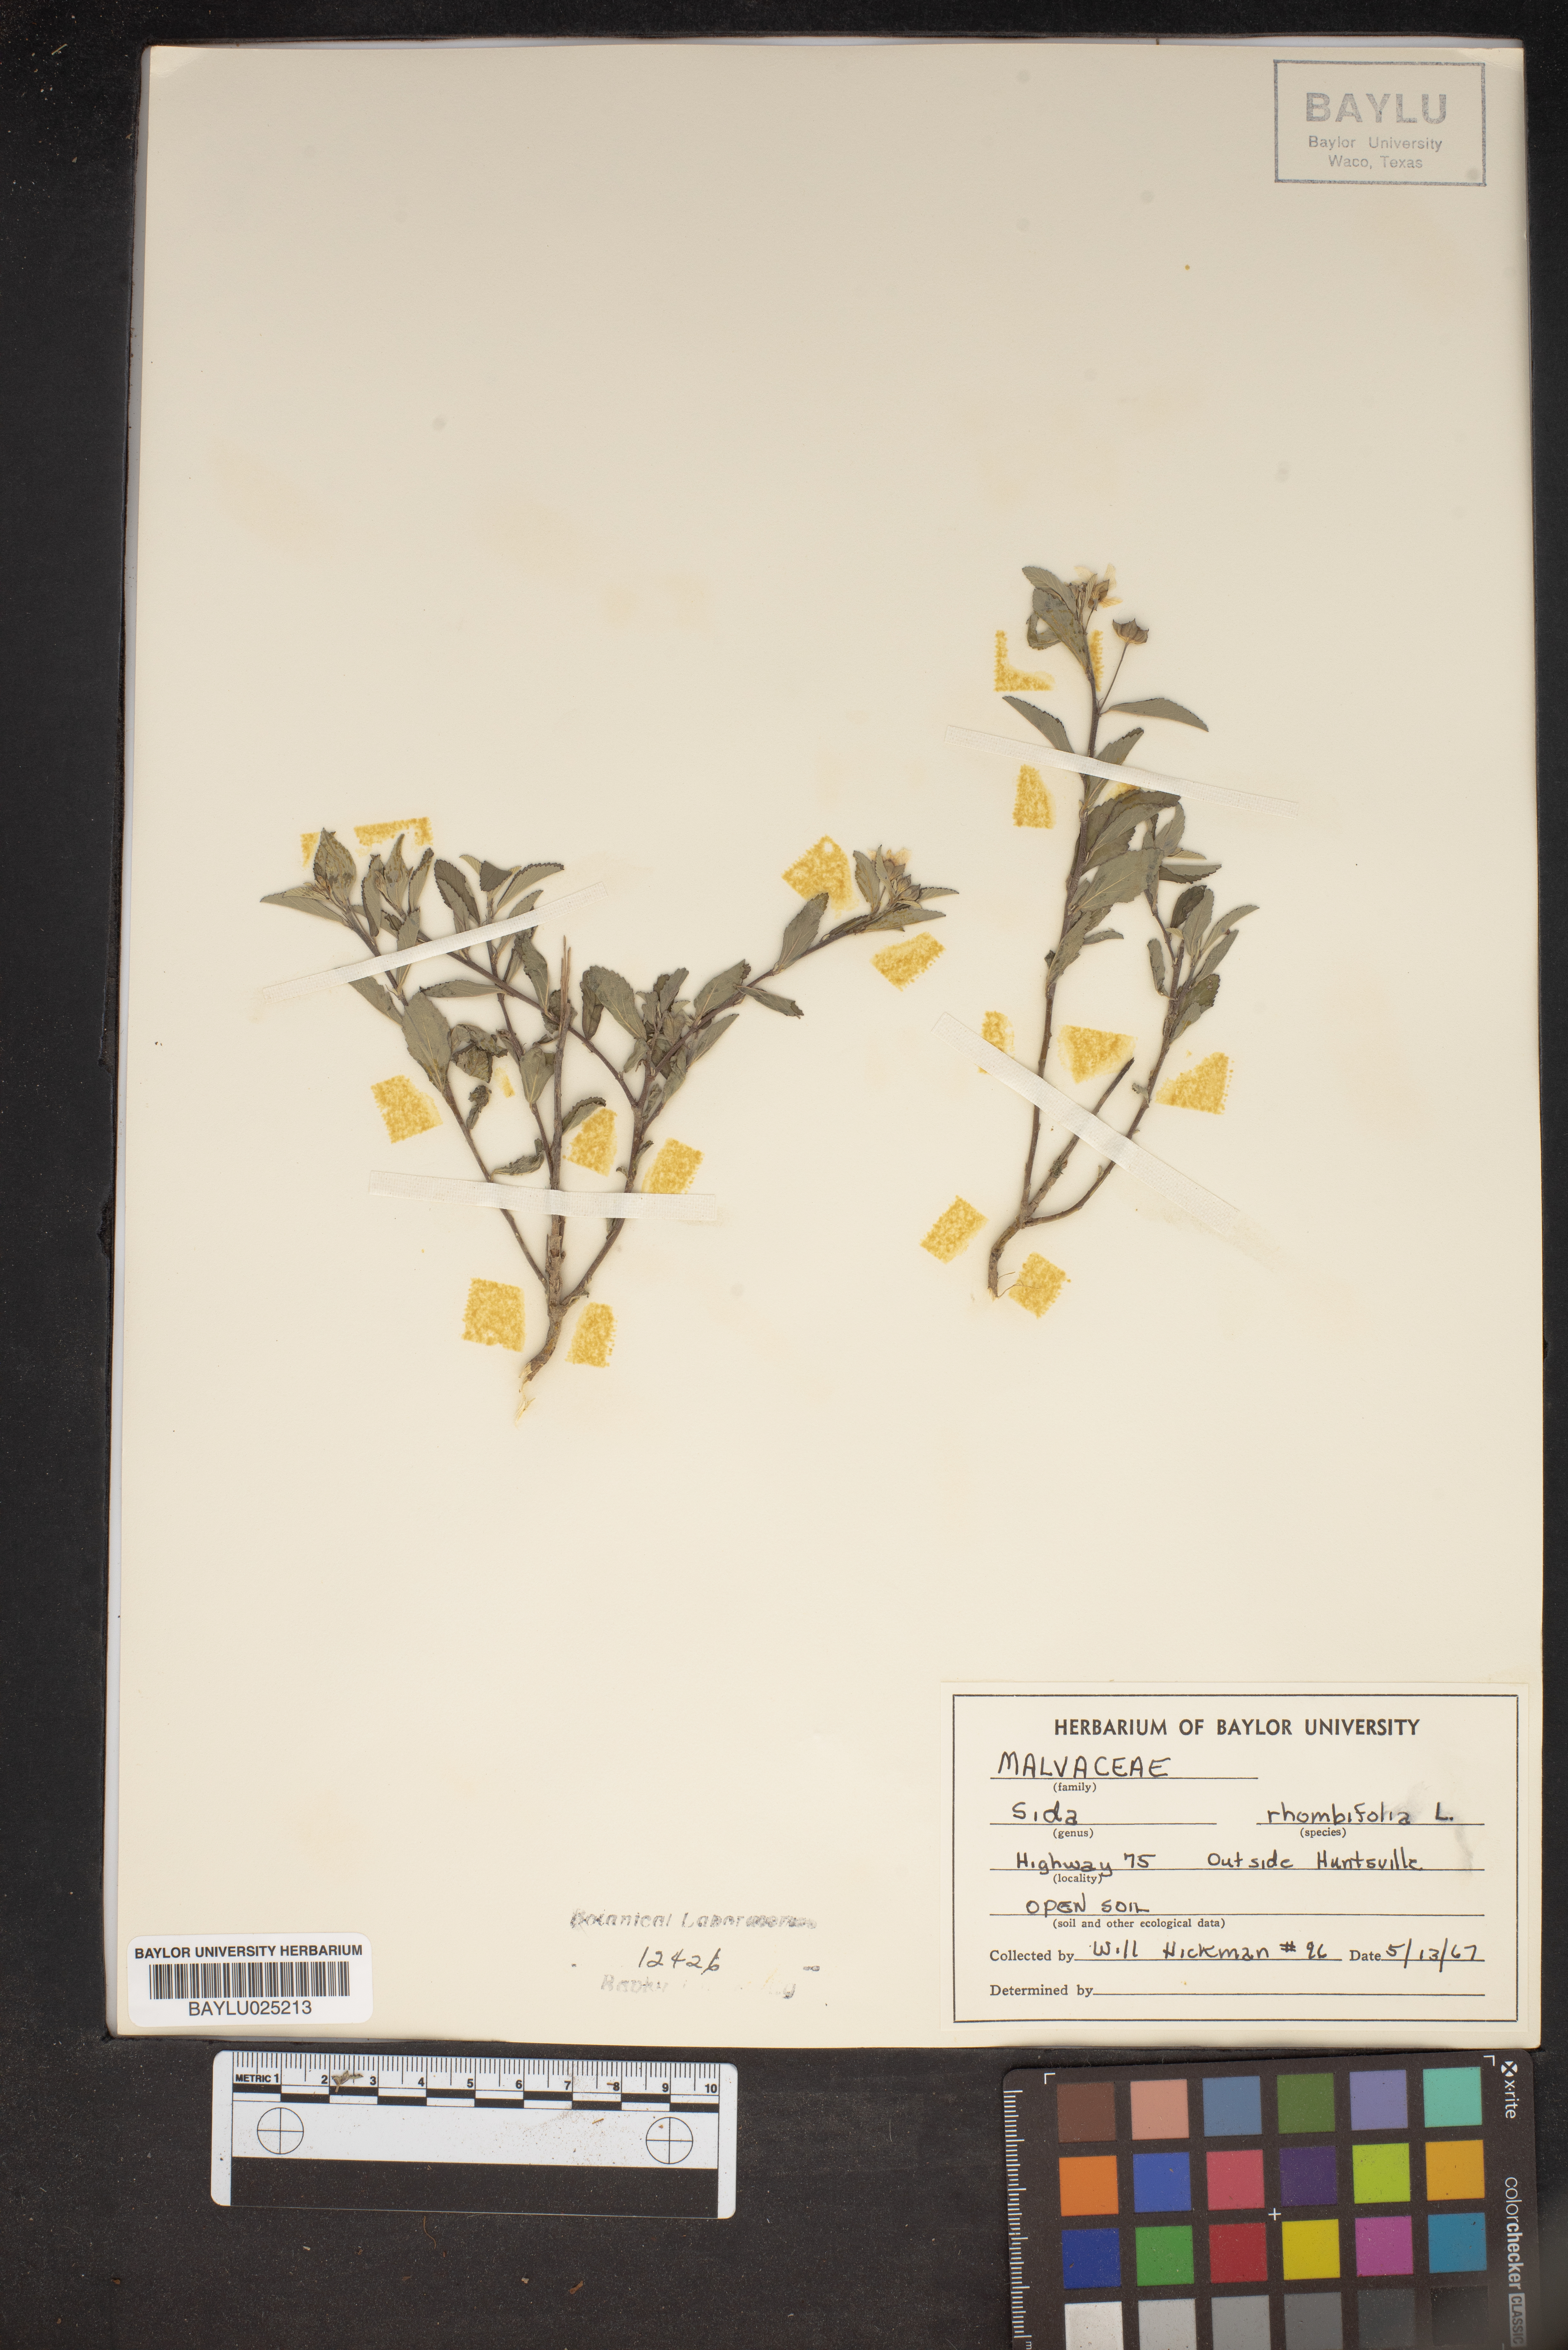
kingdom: Plantae
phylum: Tracheophyta
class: Magnoliopsida
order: Malvales
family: Malvaceae
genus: Sida
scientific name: Sida rhombifolia
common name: Queensland-hemp
